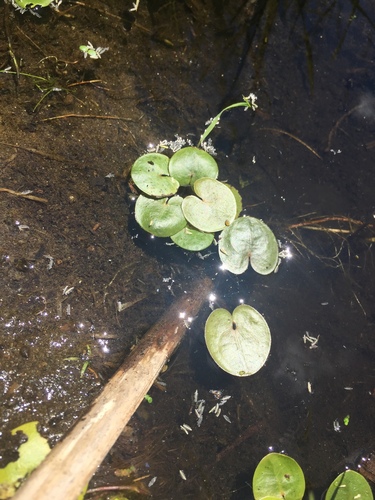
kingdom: Plantae
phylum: Tracheophyta
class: Liliopsida
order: Alismatales
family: Hydrocharitaceae
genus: Hydrocharis
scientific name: Hydrocharis morsus-ranae
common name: European frog-bit
